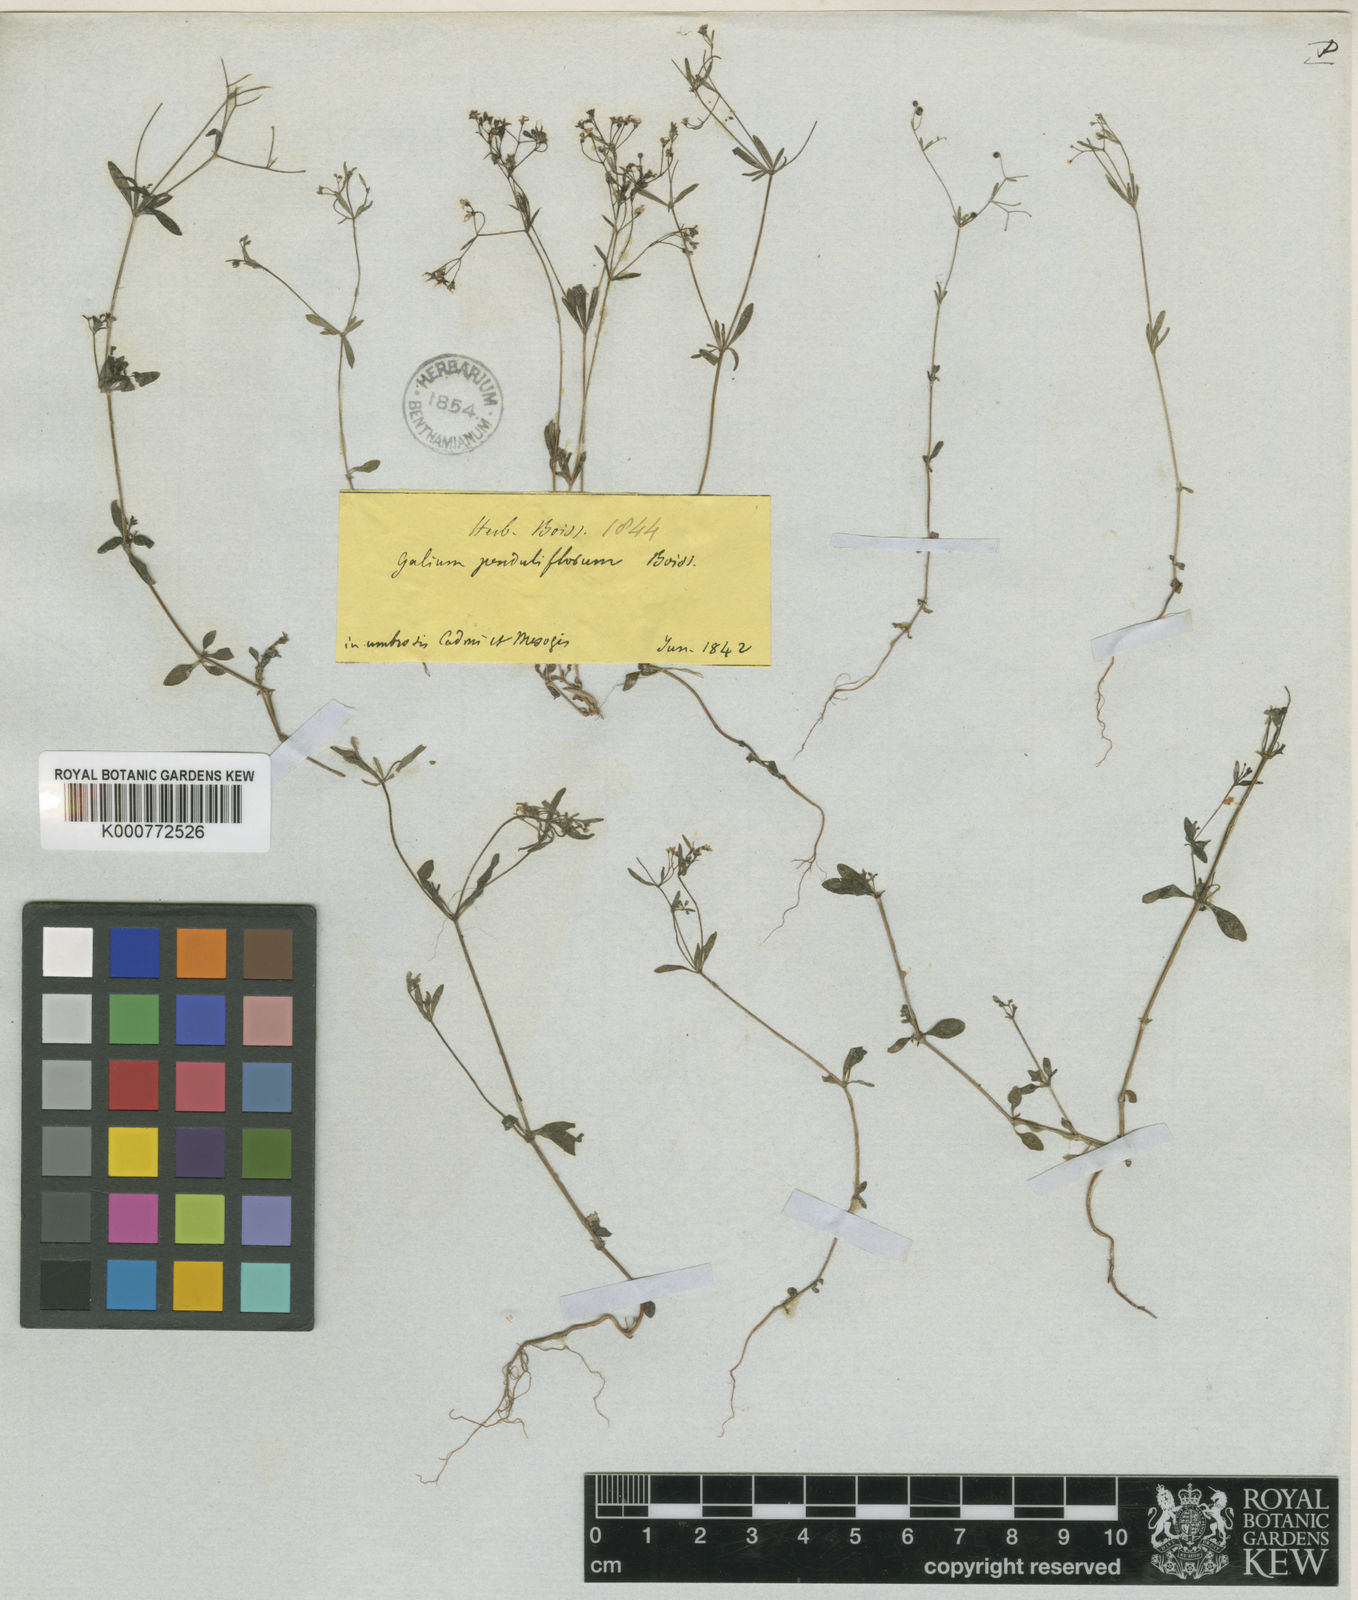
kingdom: Plantae
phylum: Tracheophyta
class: Magnoliopsida
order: Gentianales
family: Rubiaceae
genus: Galium
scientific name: Galium penduliflorum
